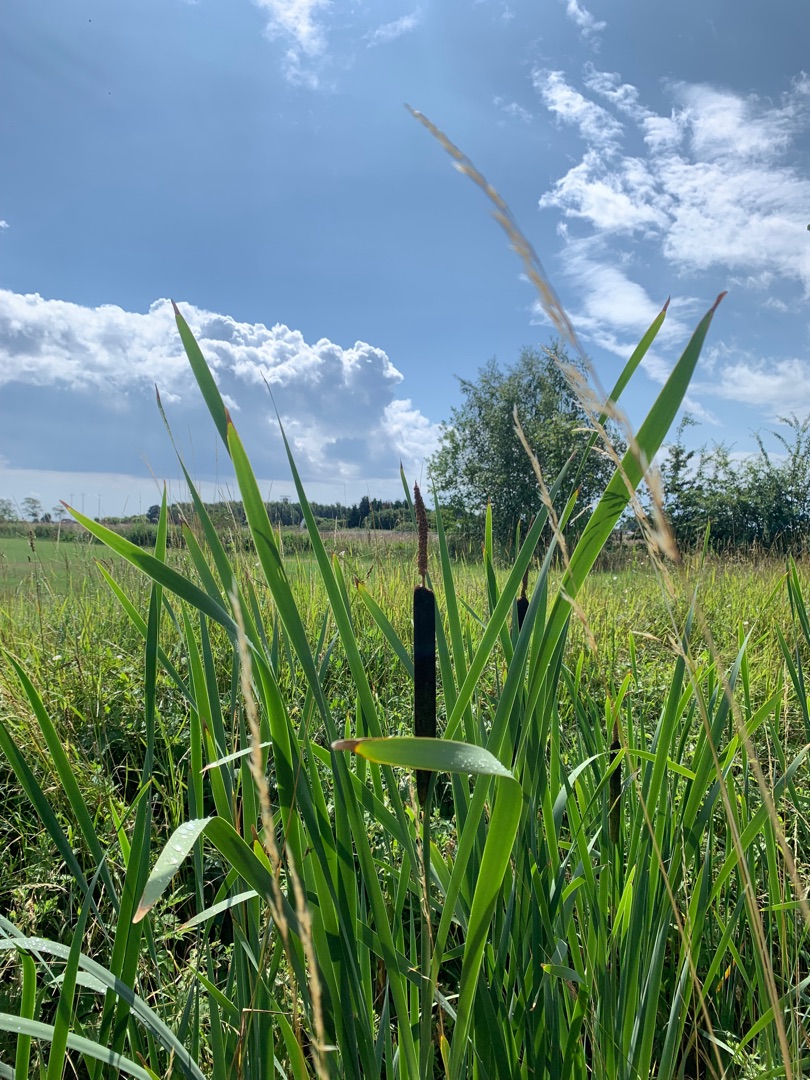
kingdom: Plantae
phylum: Tracheophyta
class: Liliopsida
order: Poales
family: Typhaceae
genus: Typha
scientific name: Typha latifolia
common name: Bredbladet dunhammer
